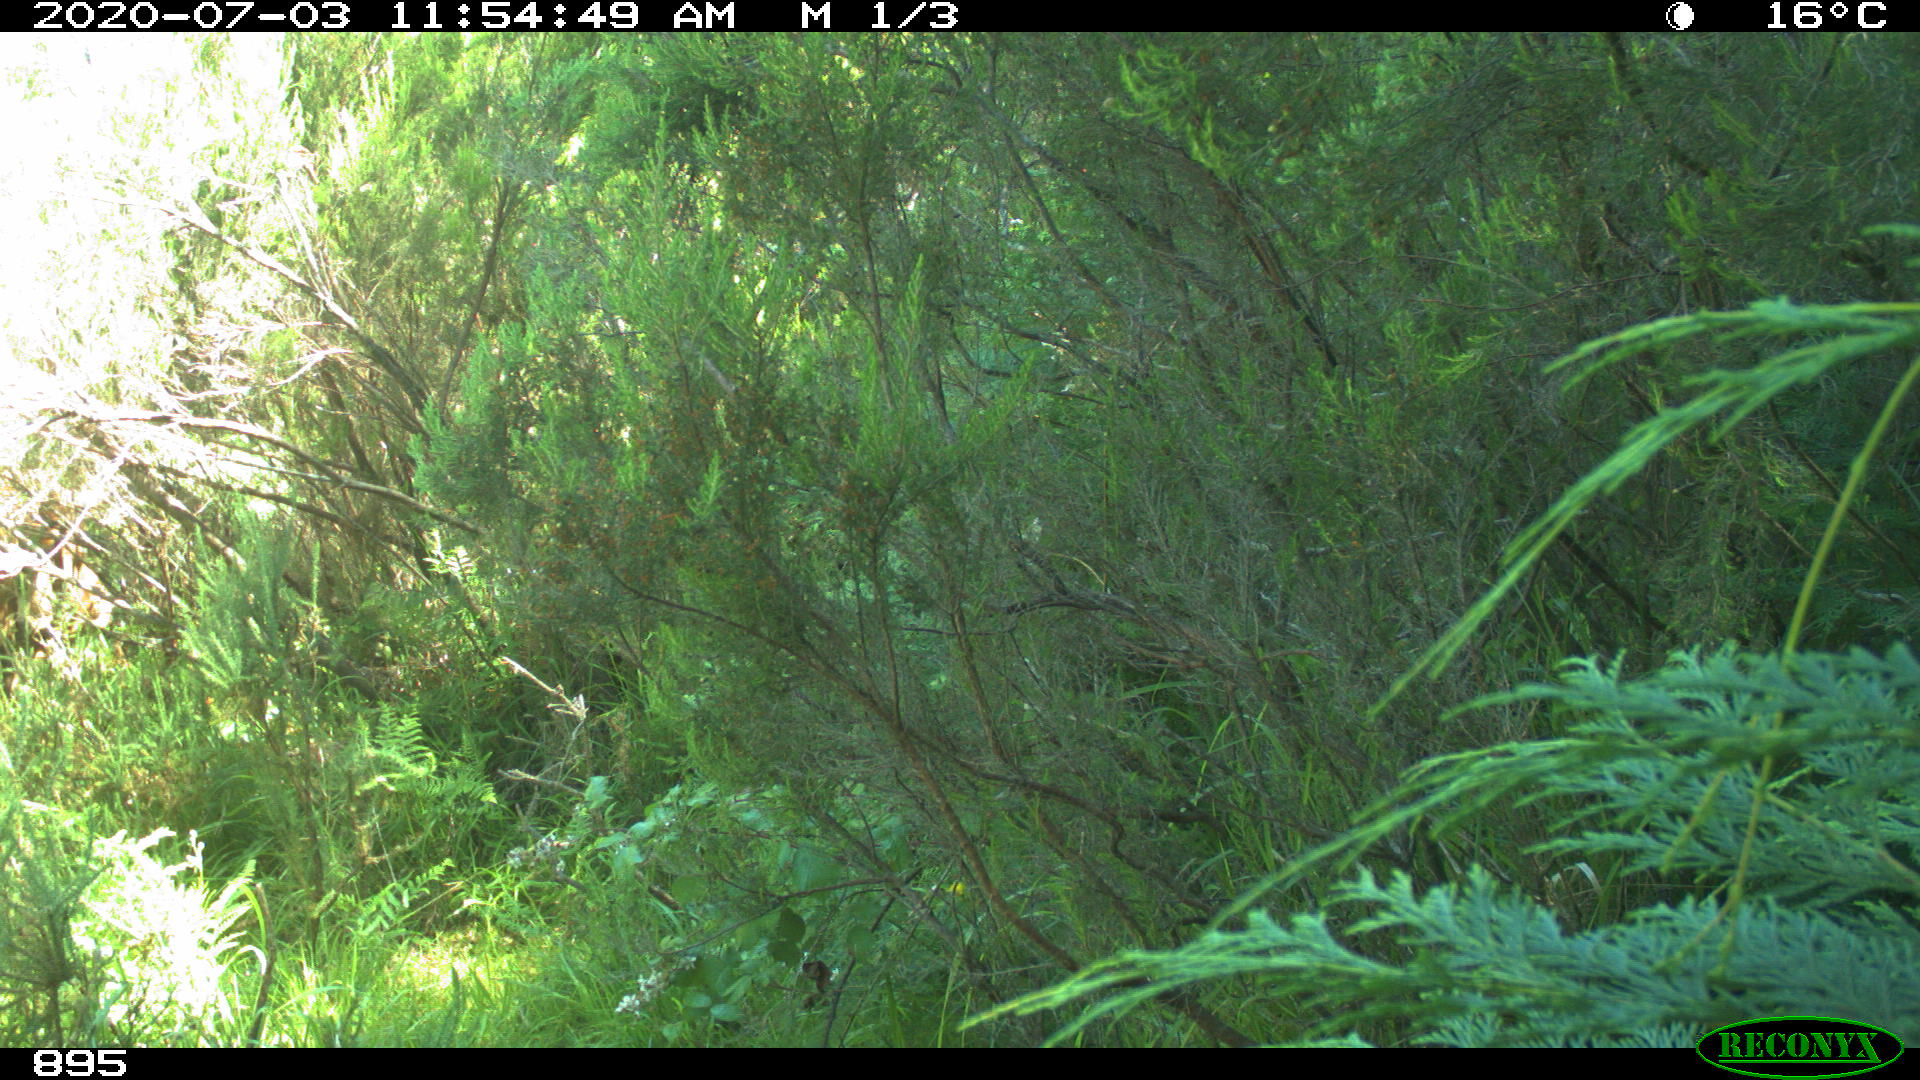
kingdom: Animalia
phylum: Chordata
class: Mammalia
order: Artiodactyla
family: Bovidae
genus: Bos
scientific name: Bos taurus
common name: Domesticated cattle
